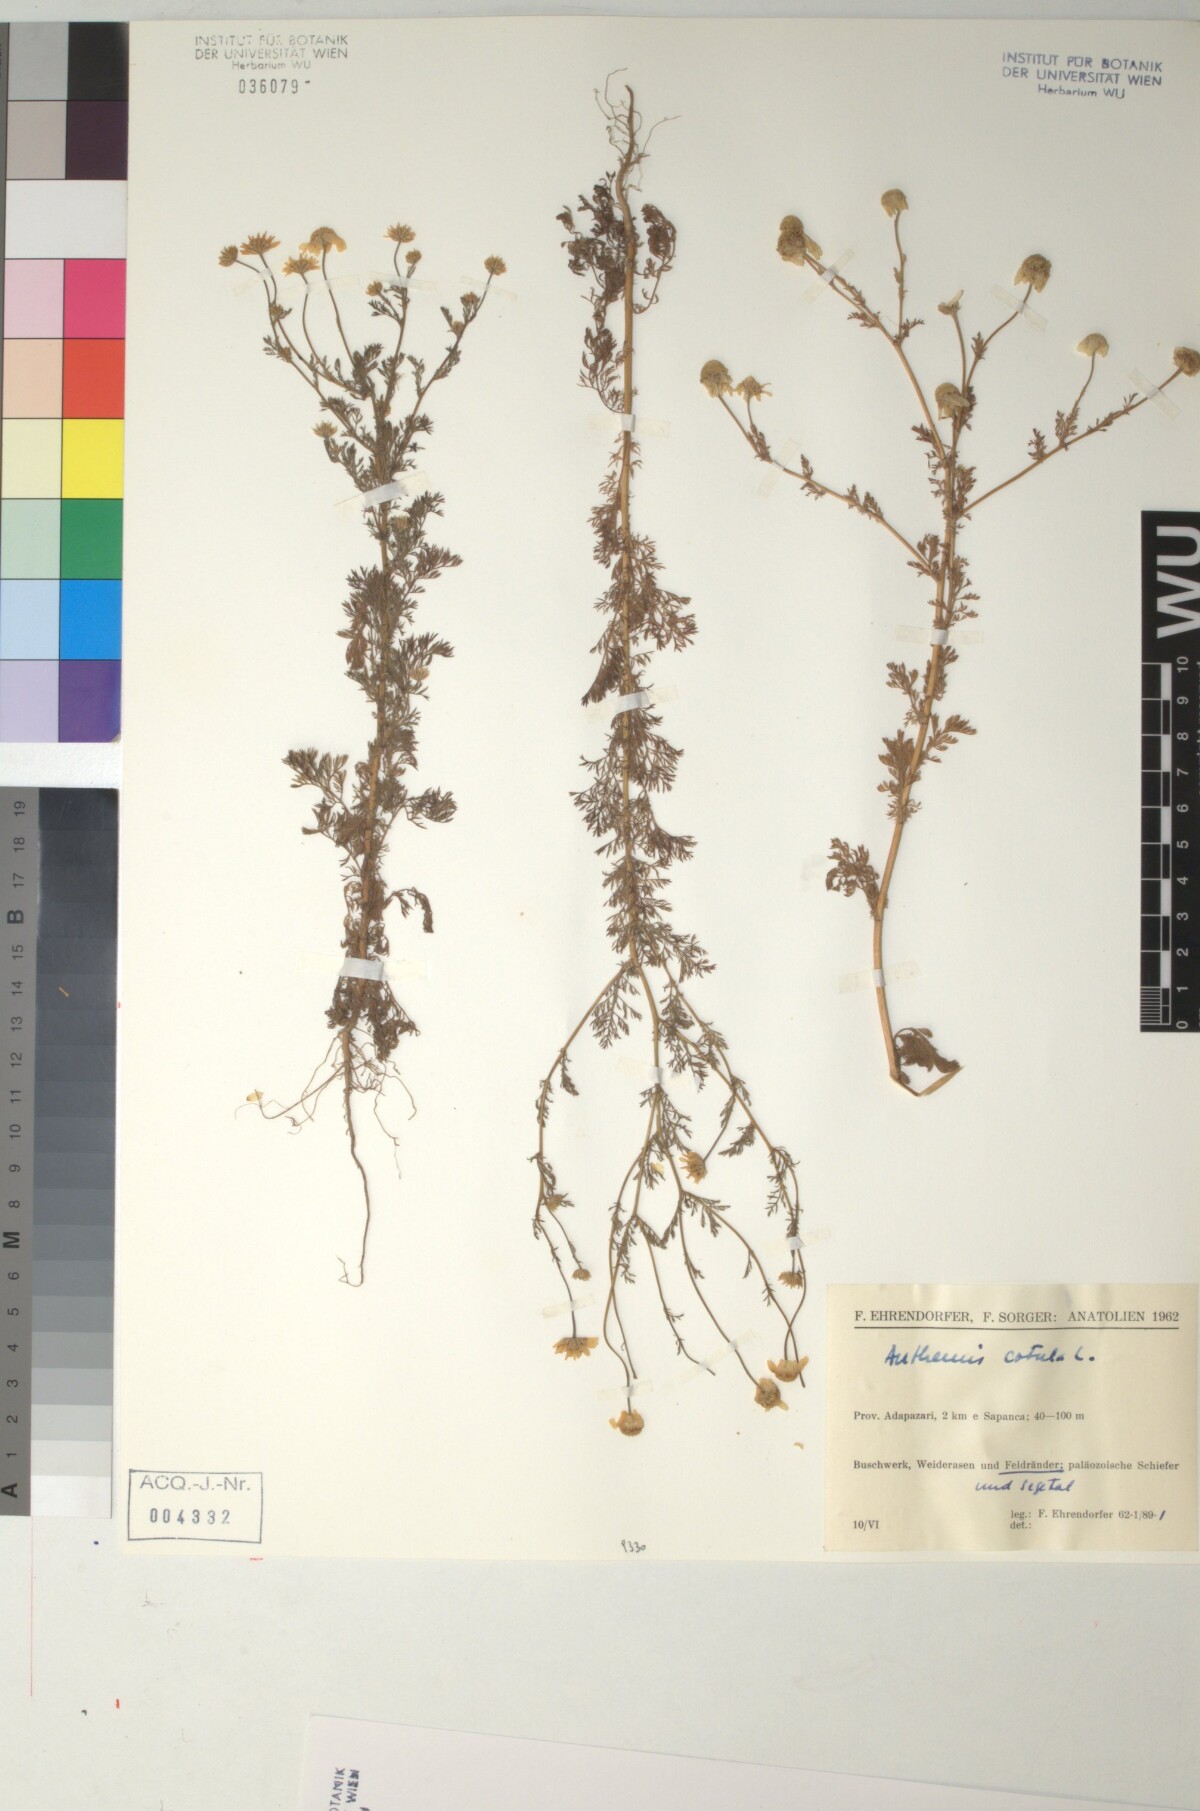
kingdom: Plantae
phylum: Tracheophyta
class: Magnoliopsida
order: Asterales
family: Asteraceae
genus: Anthemis
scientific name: Anthemis cotula
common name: Stinking chamomile
